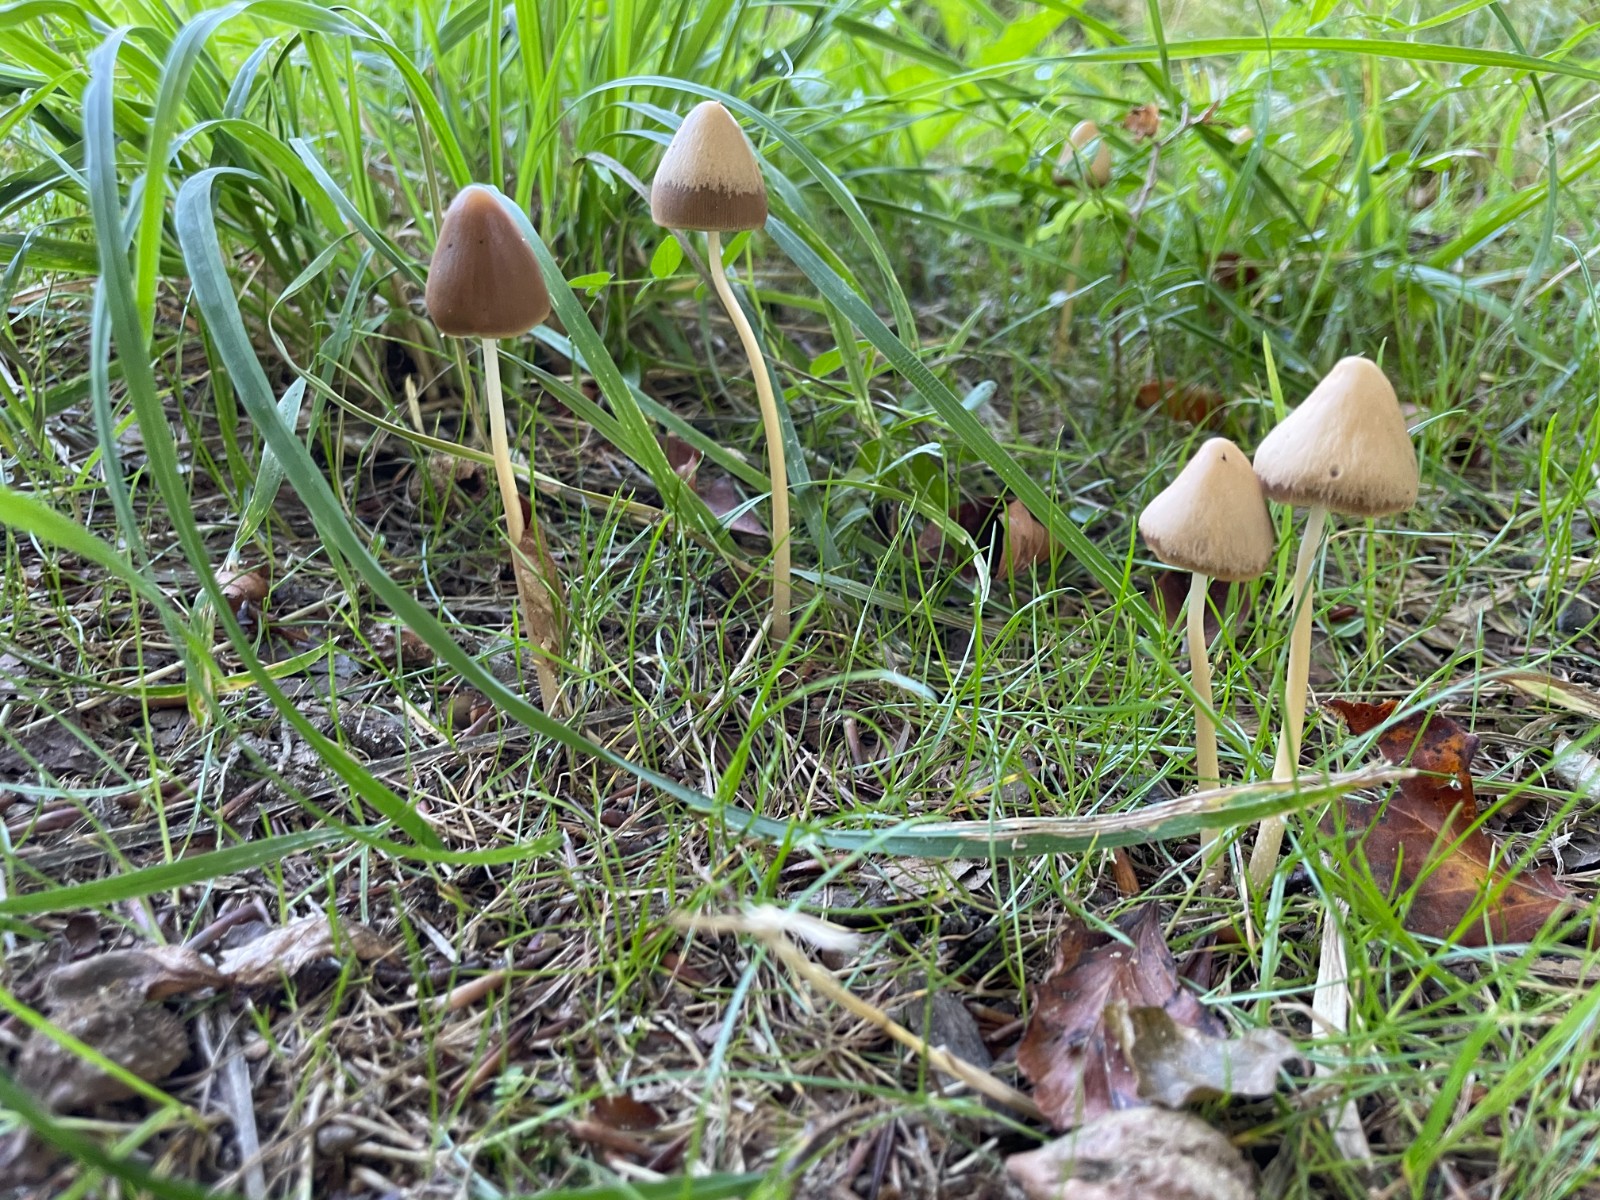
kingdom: Fungi
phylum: Basidiomycota
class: Agaricomycetes
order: Agaricales
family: Psathyrellaceae
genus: Parasola
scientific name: Parasola conopilea
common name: kegle-hjulhat
